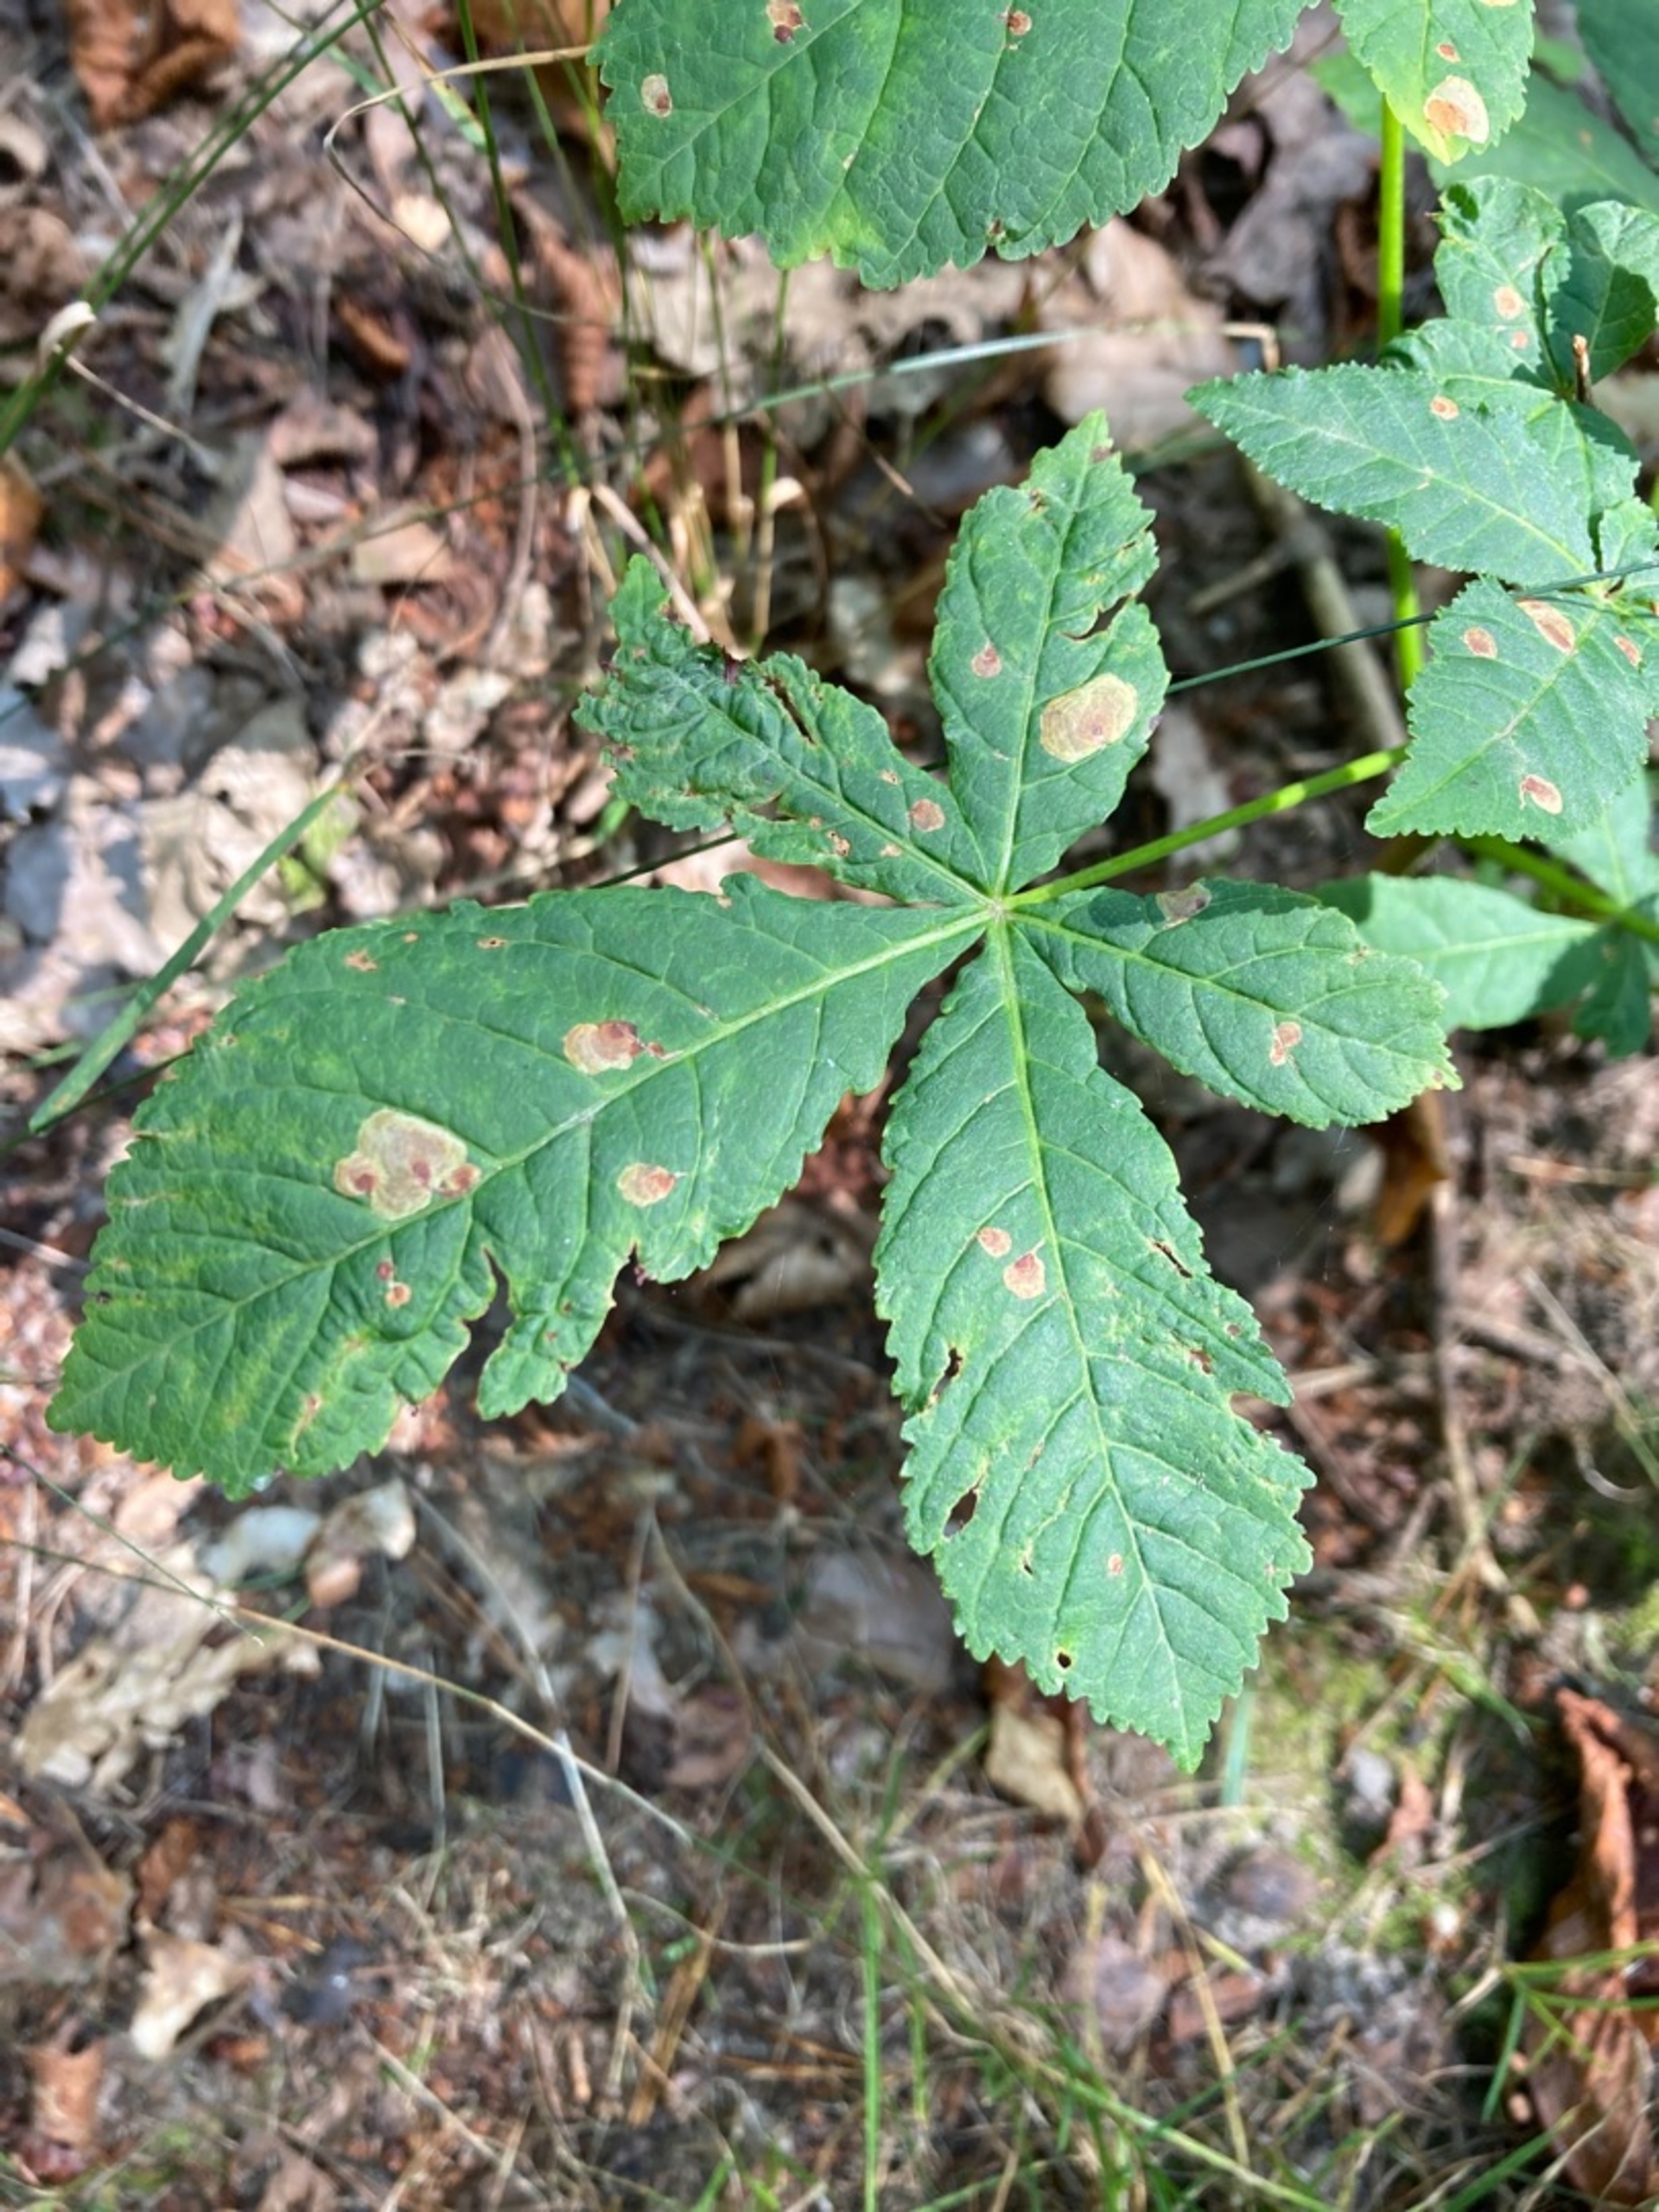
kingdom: Animalia
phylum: Arthropoda
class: Insecta
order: Lepidoptera
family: Gracillariidae
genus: Cameraria
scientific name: Cameraria ohridella
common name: Kastanieminérmøl
